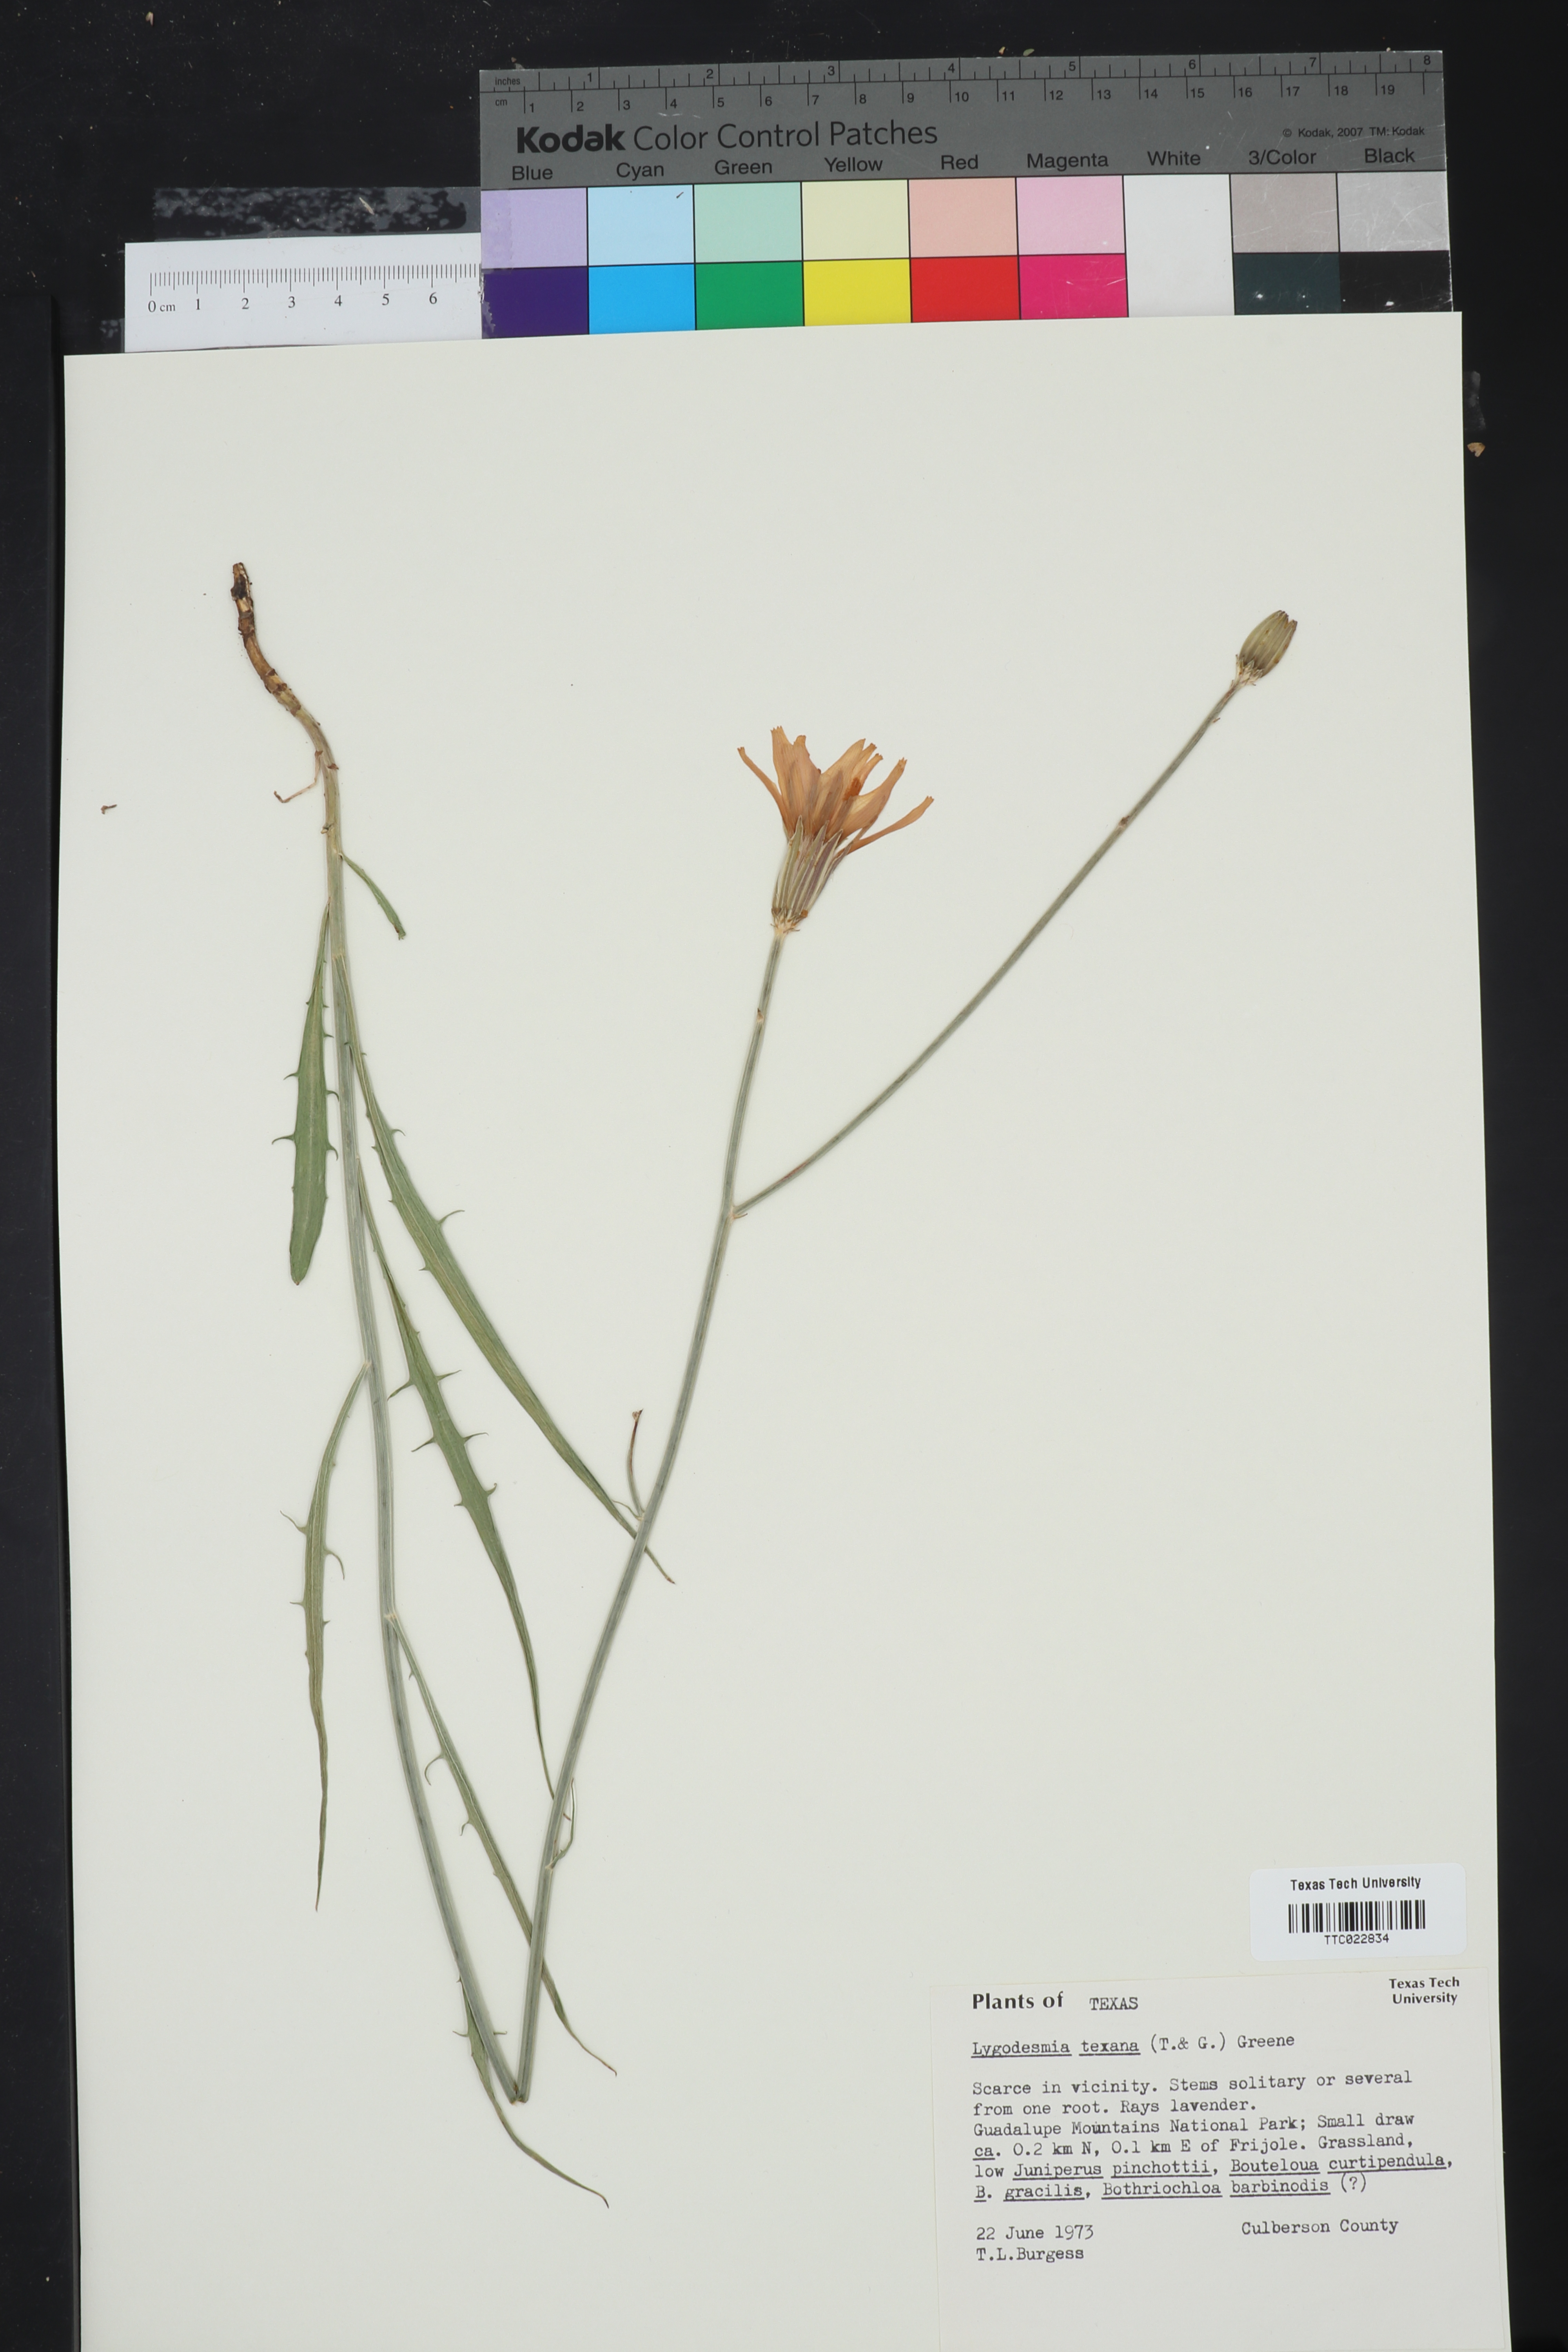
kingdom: Plantae
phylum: Tracheophyta
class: Magnoliopsida
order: Asterales
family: Asteraceae
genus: Lygodesmia
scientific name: Lygodesmia texana
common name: Texas skeleton-plant
